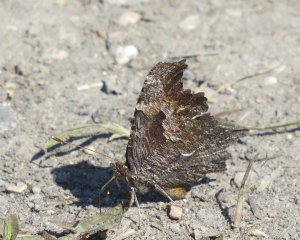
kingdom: Animalia
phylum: Arthropoda
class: Insecta
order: Lepidoptera
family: Nymphalidae
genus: Polygonia
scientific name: Polygonia progne
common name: Gray Comma
